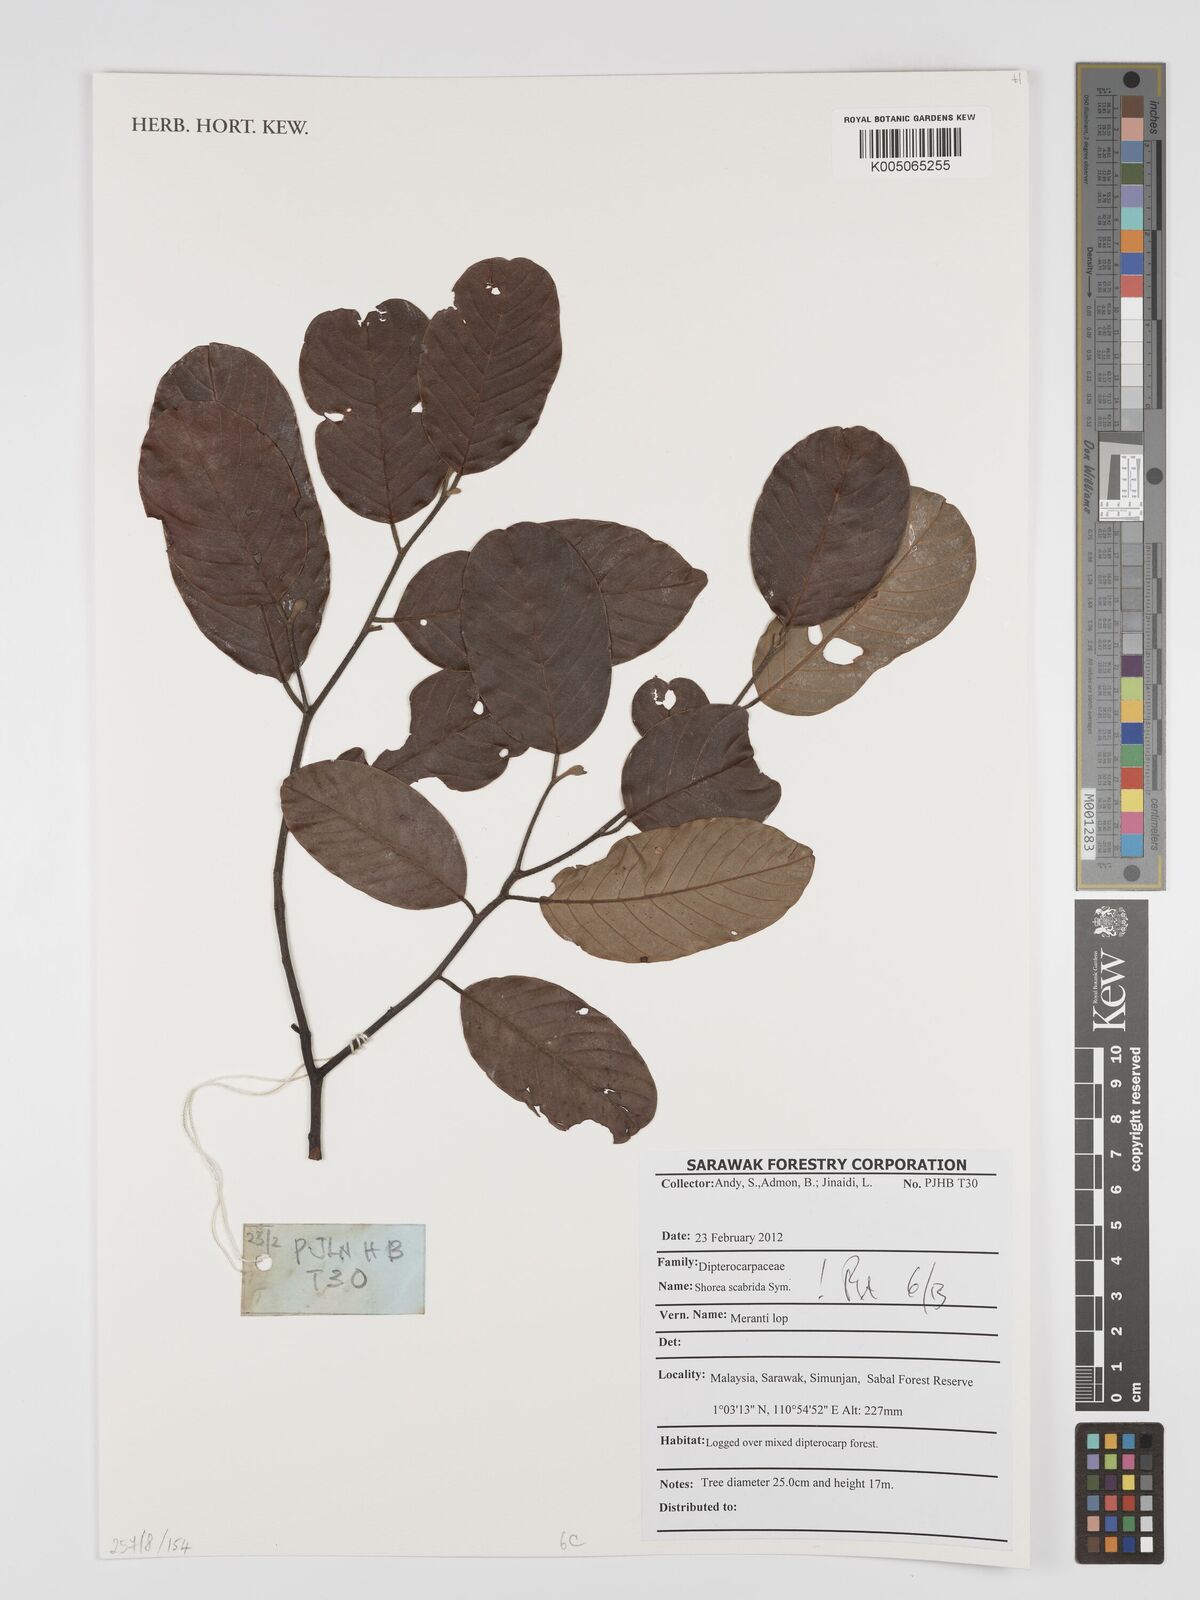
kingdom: Plantae
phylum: Tracheophyta
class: Magnoliopsida
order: Malvales
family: Dipterocarpaceae
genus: Shorea
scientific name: Shorea scabrida
